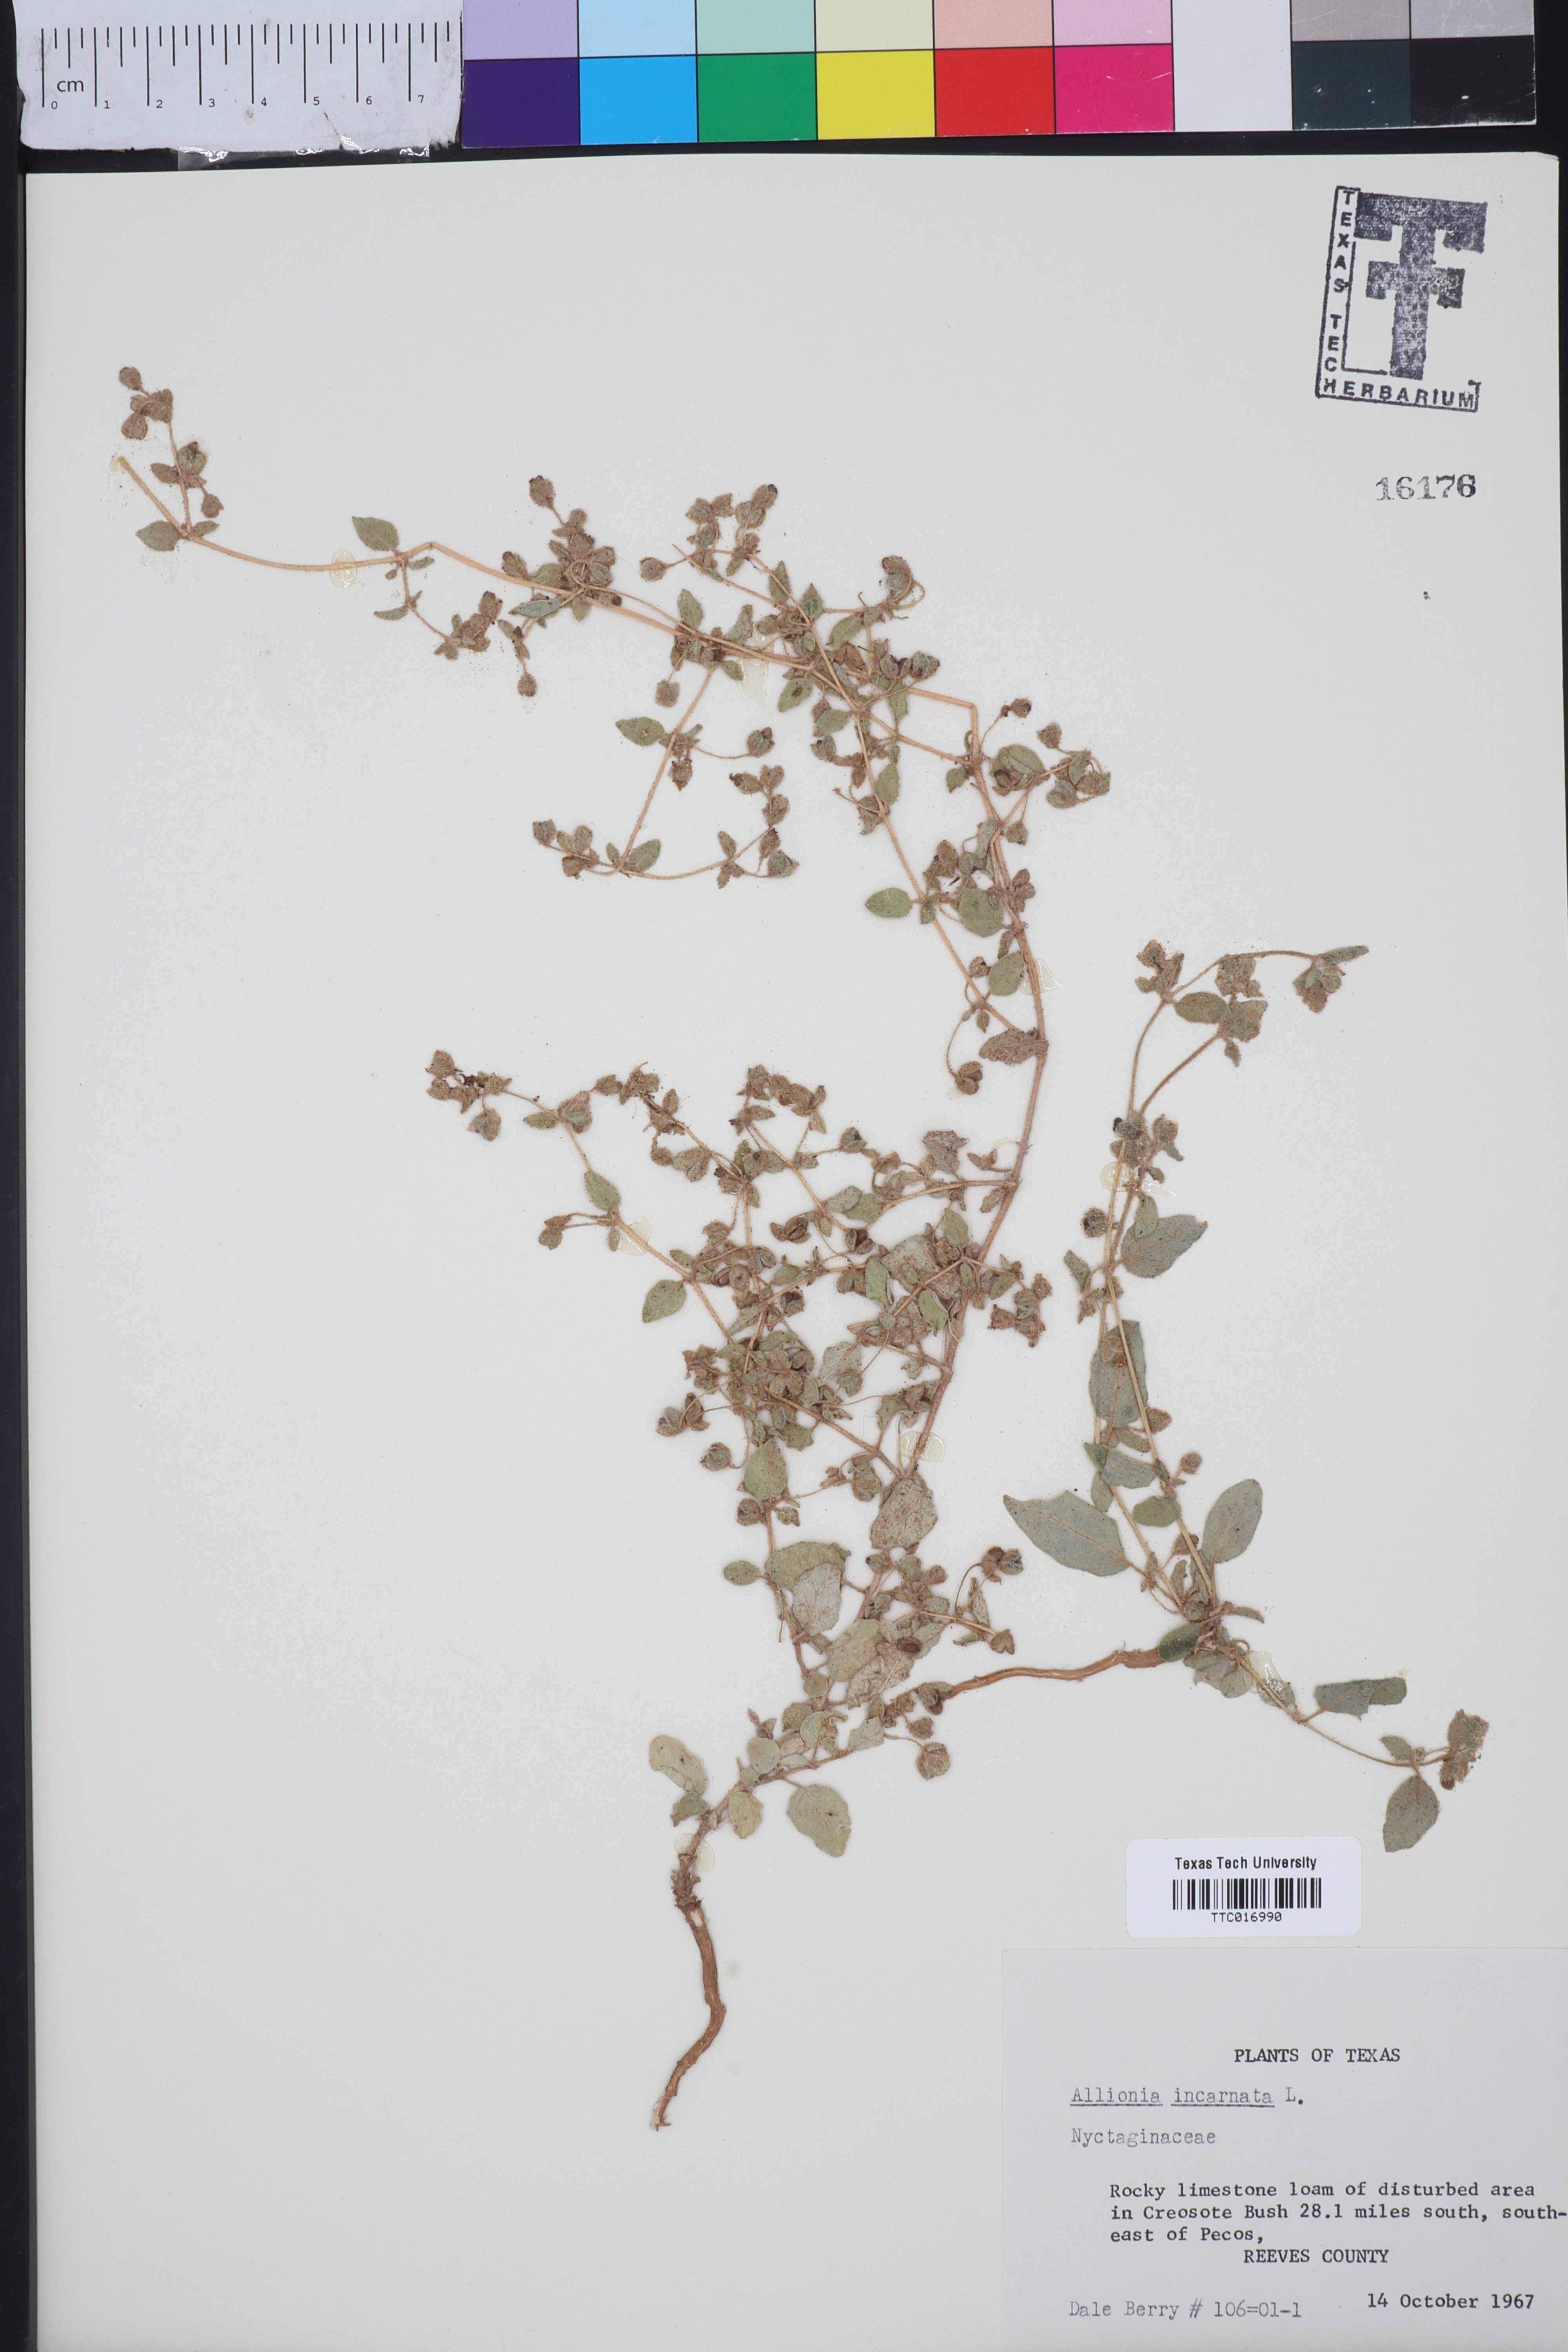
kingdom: Plantae
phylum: Tracheophyta
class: Magnoliopsida
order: Caryophyllales
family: Nyctaginaceae
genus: Allionia
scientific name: Allionia incarnata
